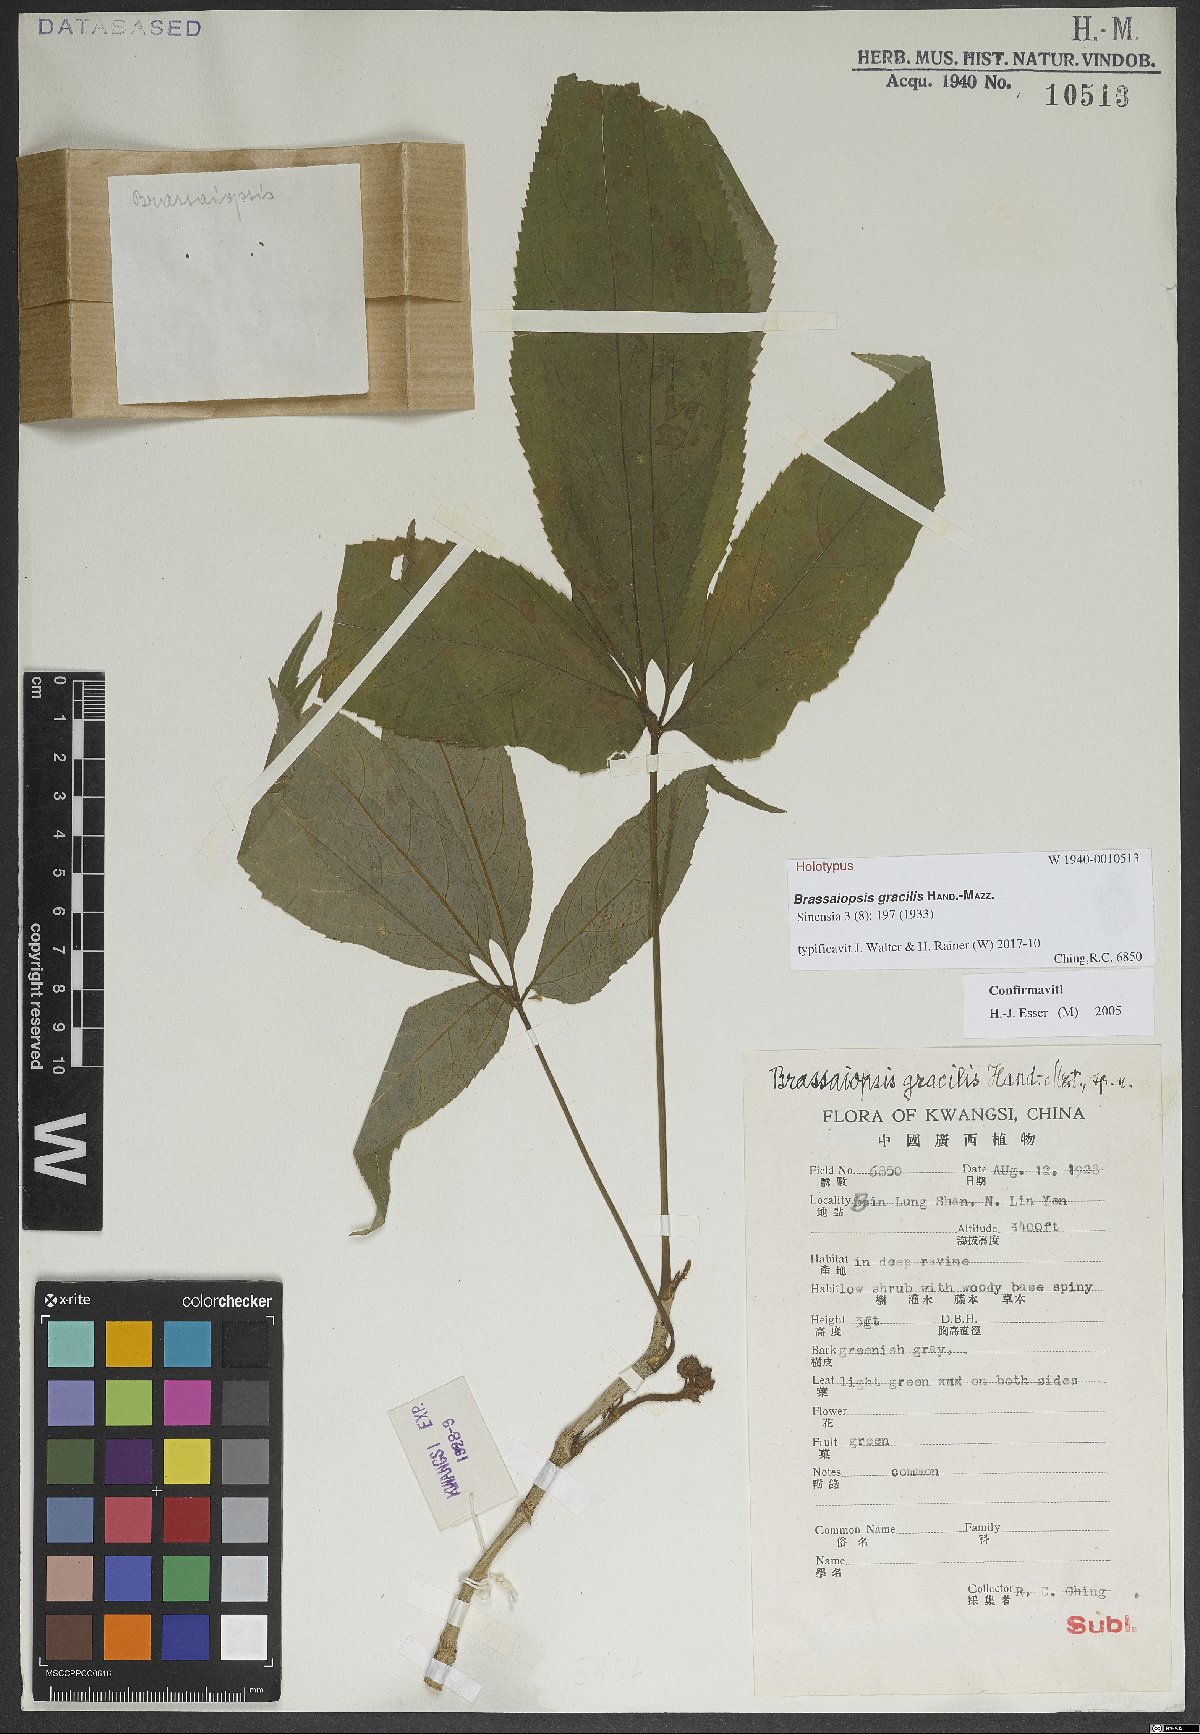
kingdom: Plantae
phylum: Tracheophyta
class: Magnoliopsida
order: Apiales
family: Araliaceae
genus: Brassaiopsis
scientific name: Brassaiopsis gracilis
